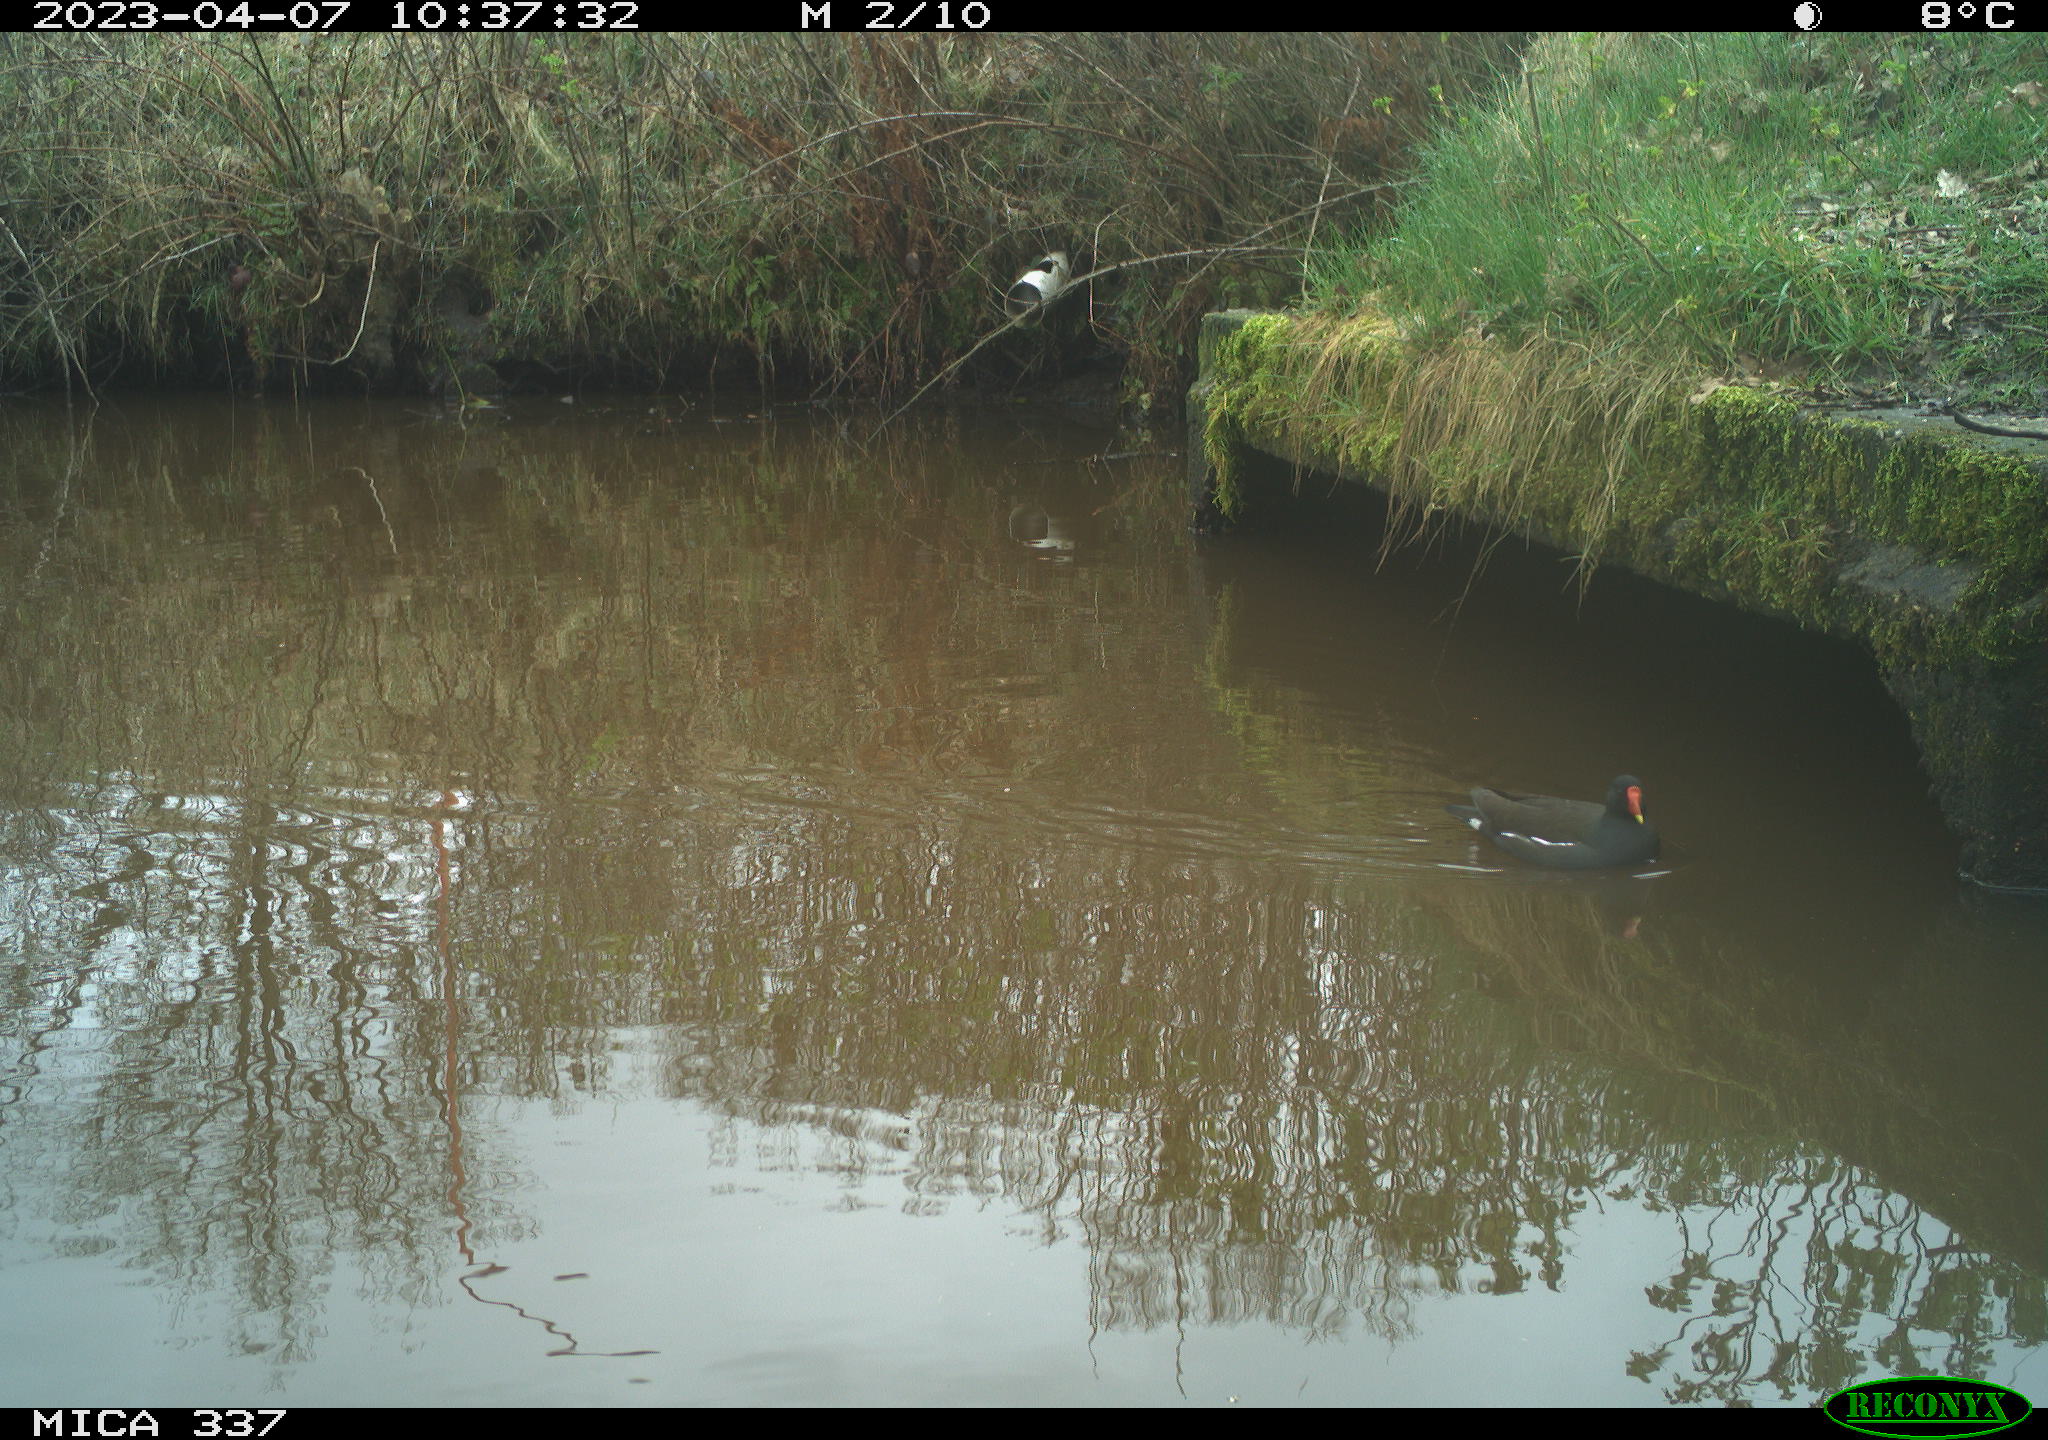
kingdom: Animalia
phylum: Chordata
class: Aves
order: Gruiformes
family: Rallidae
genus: Gallinula
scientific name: Gallinula chloropus
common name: Common moorhen
